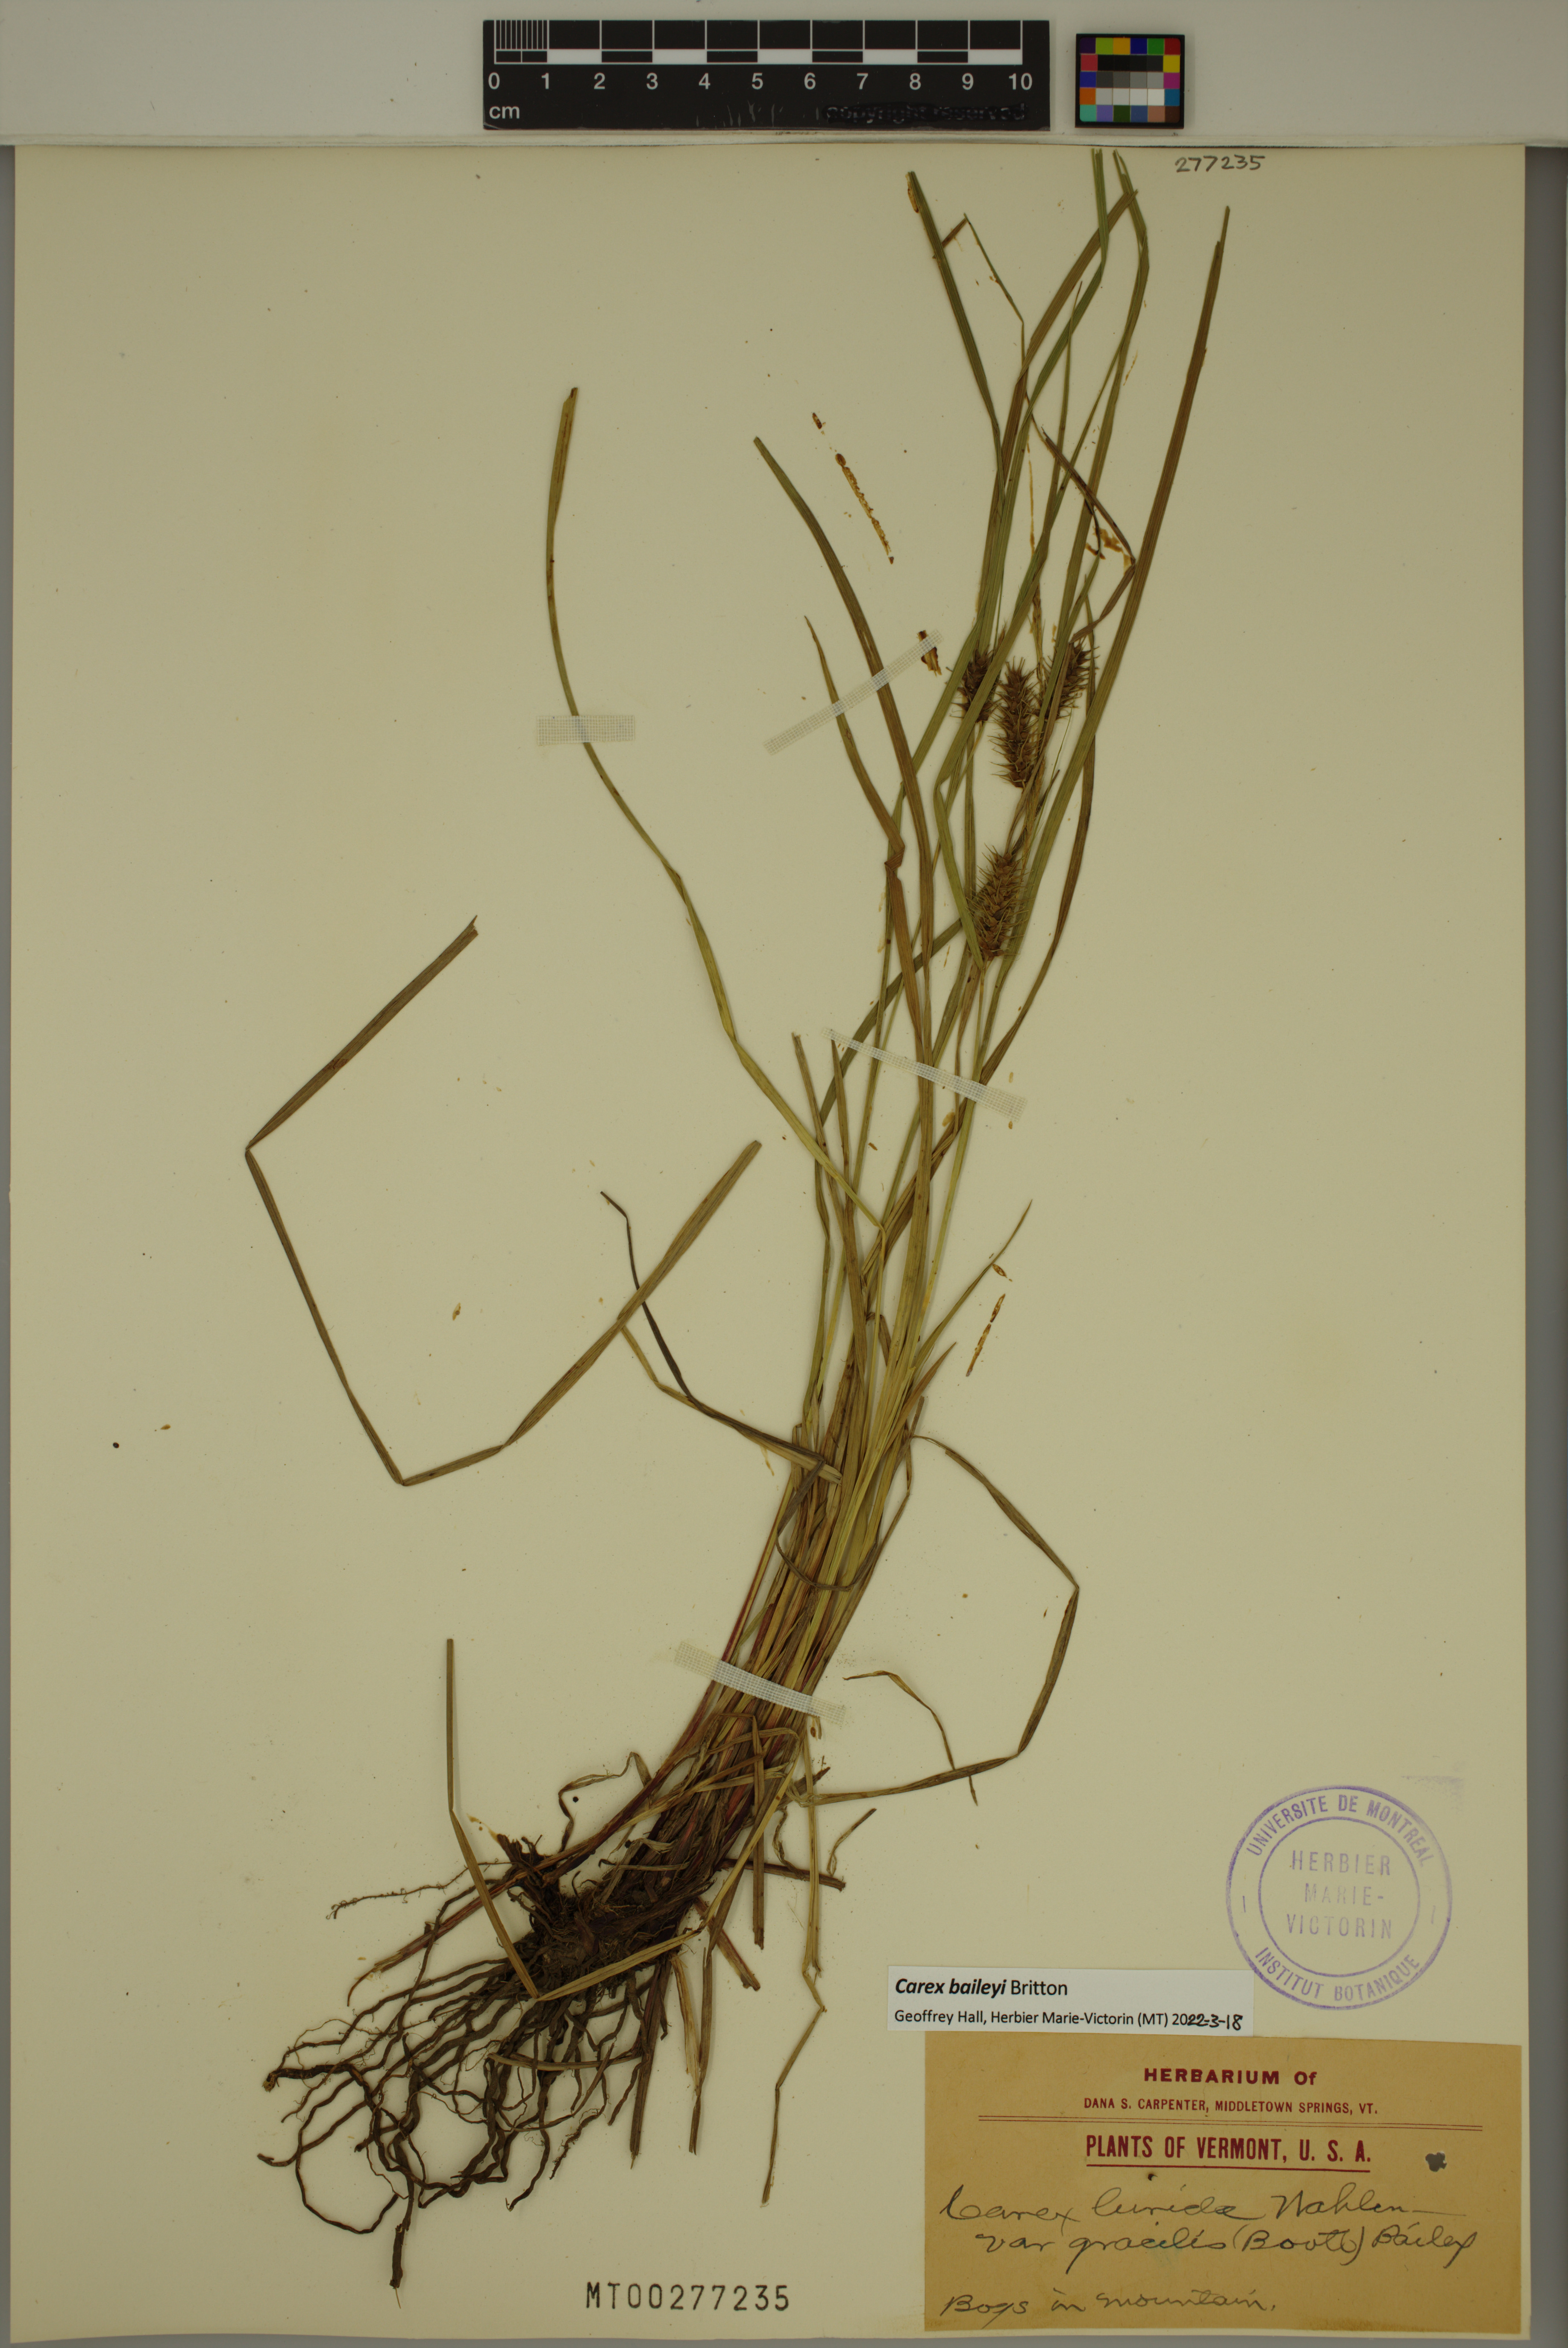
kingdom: Plantae
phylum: Tracheophyta
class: Liliopsida
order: Poales
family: Cyperaceae
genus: Carex
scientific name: Carex baileyi
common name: Bailey's sedge
